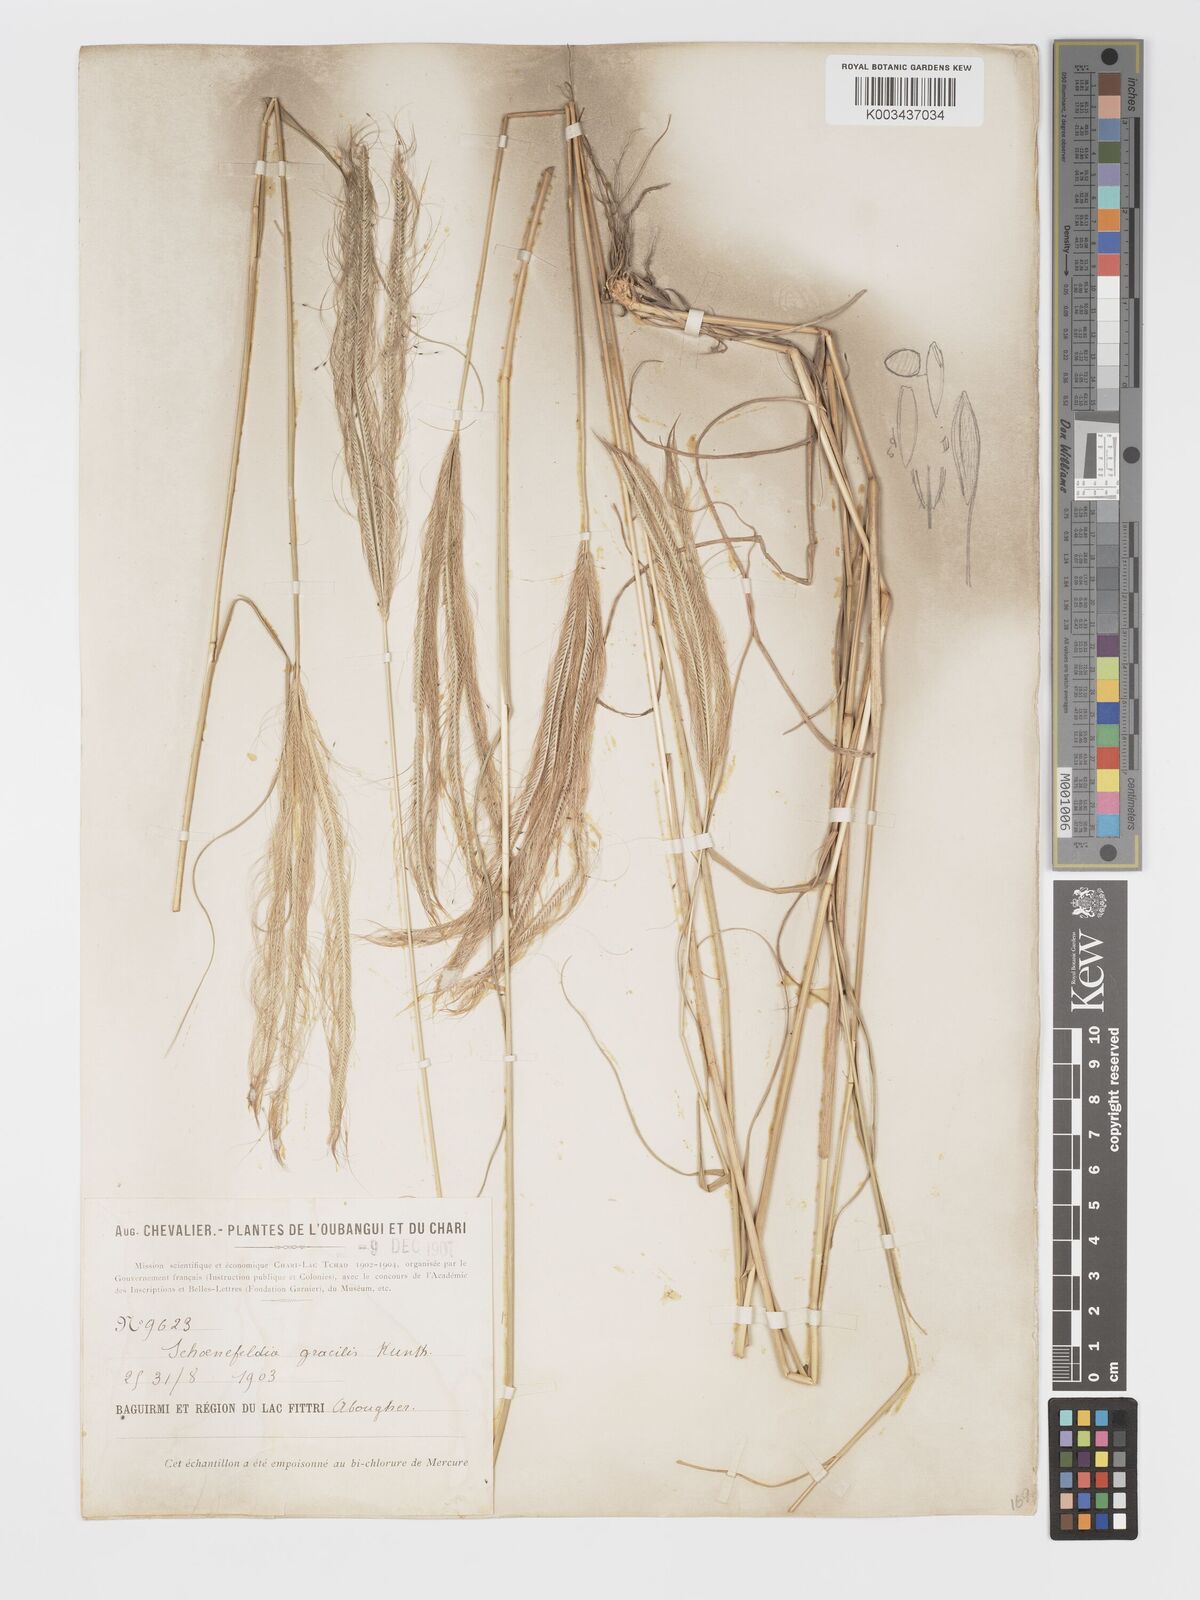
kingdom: Plantae
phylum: Tracheophyta
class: Liliopsida
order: Poales
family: Poaceae
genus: Schoenefeldia
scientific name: Schoenefeldia gracilis
